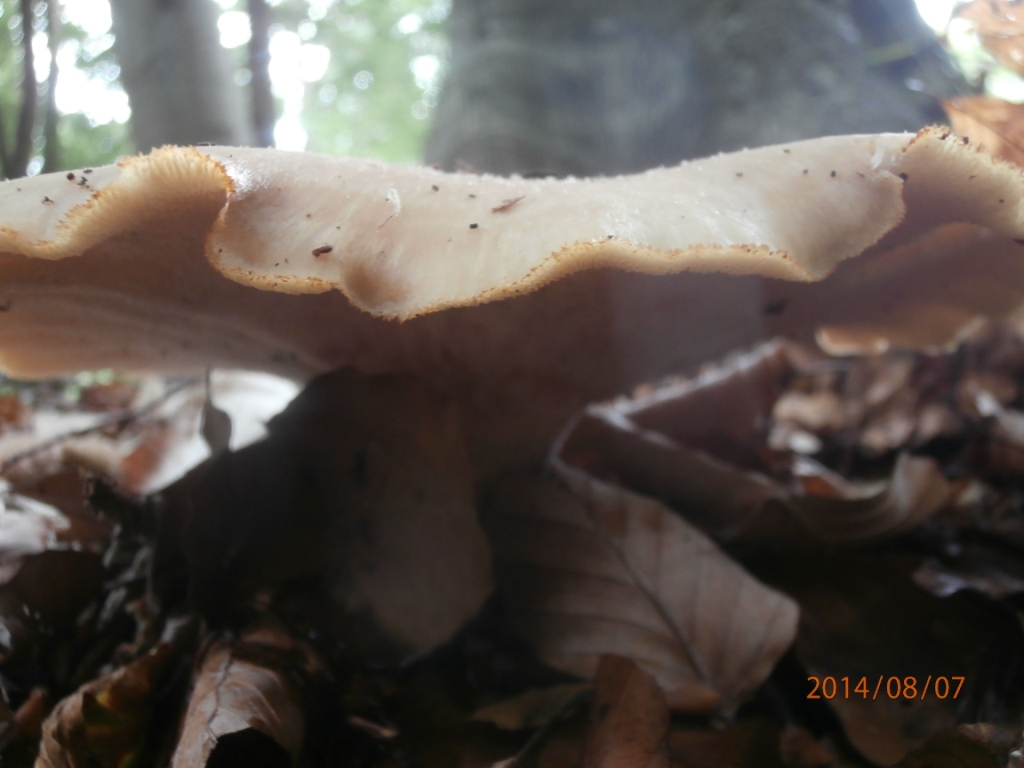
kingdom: Fungi
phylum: Basidiomycota
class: Agaricomycetes
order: Polyporales
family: Polyporaceae
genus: Polyporus
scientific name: Polyporus tuberaster
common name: knoldet stilkporesvamp
